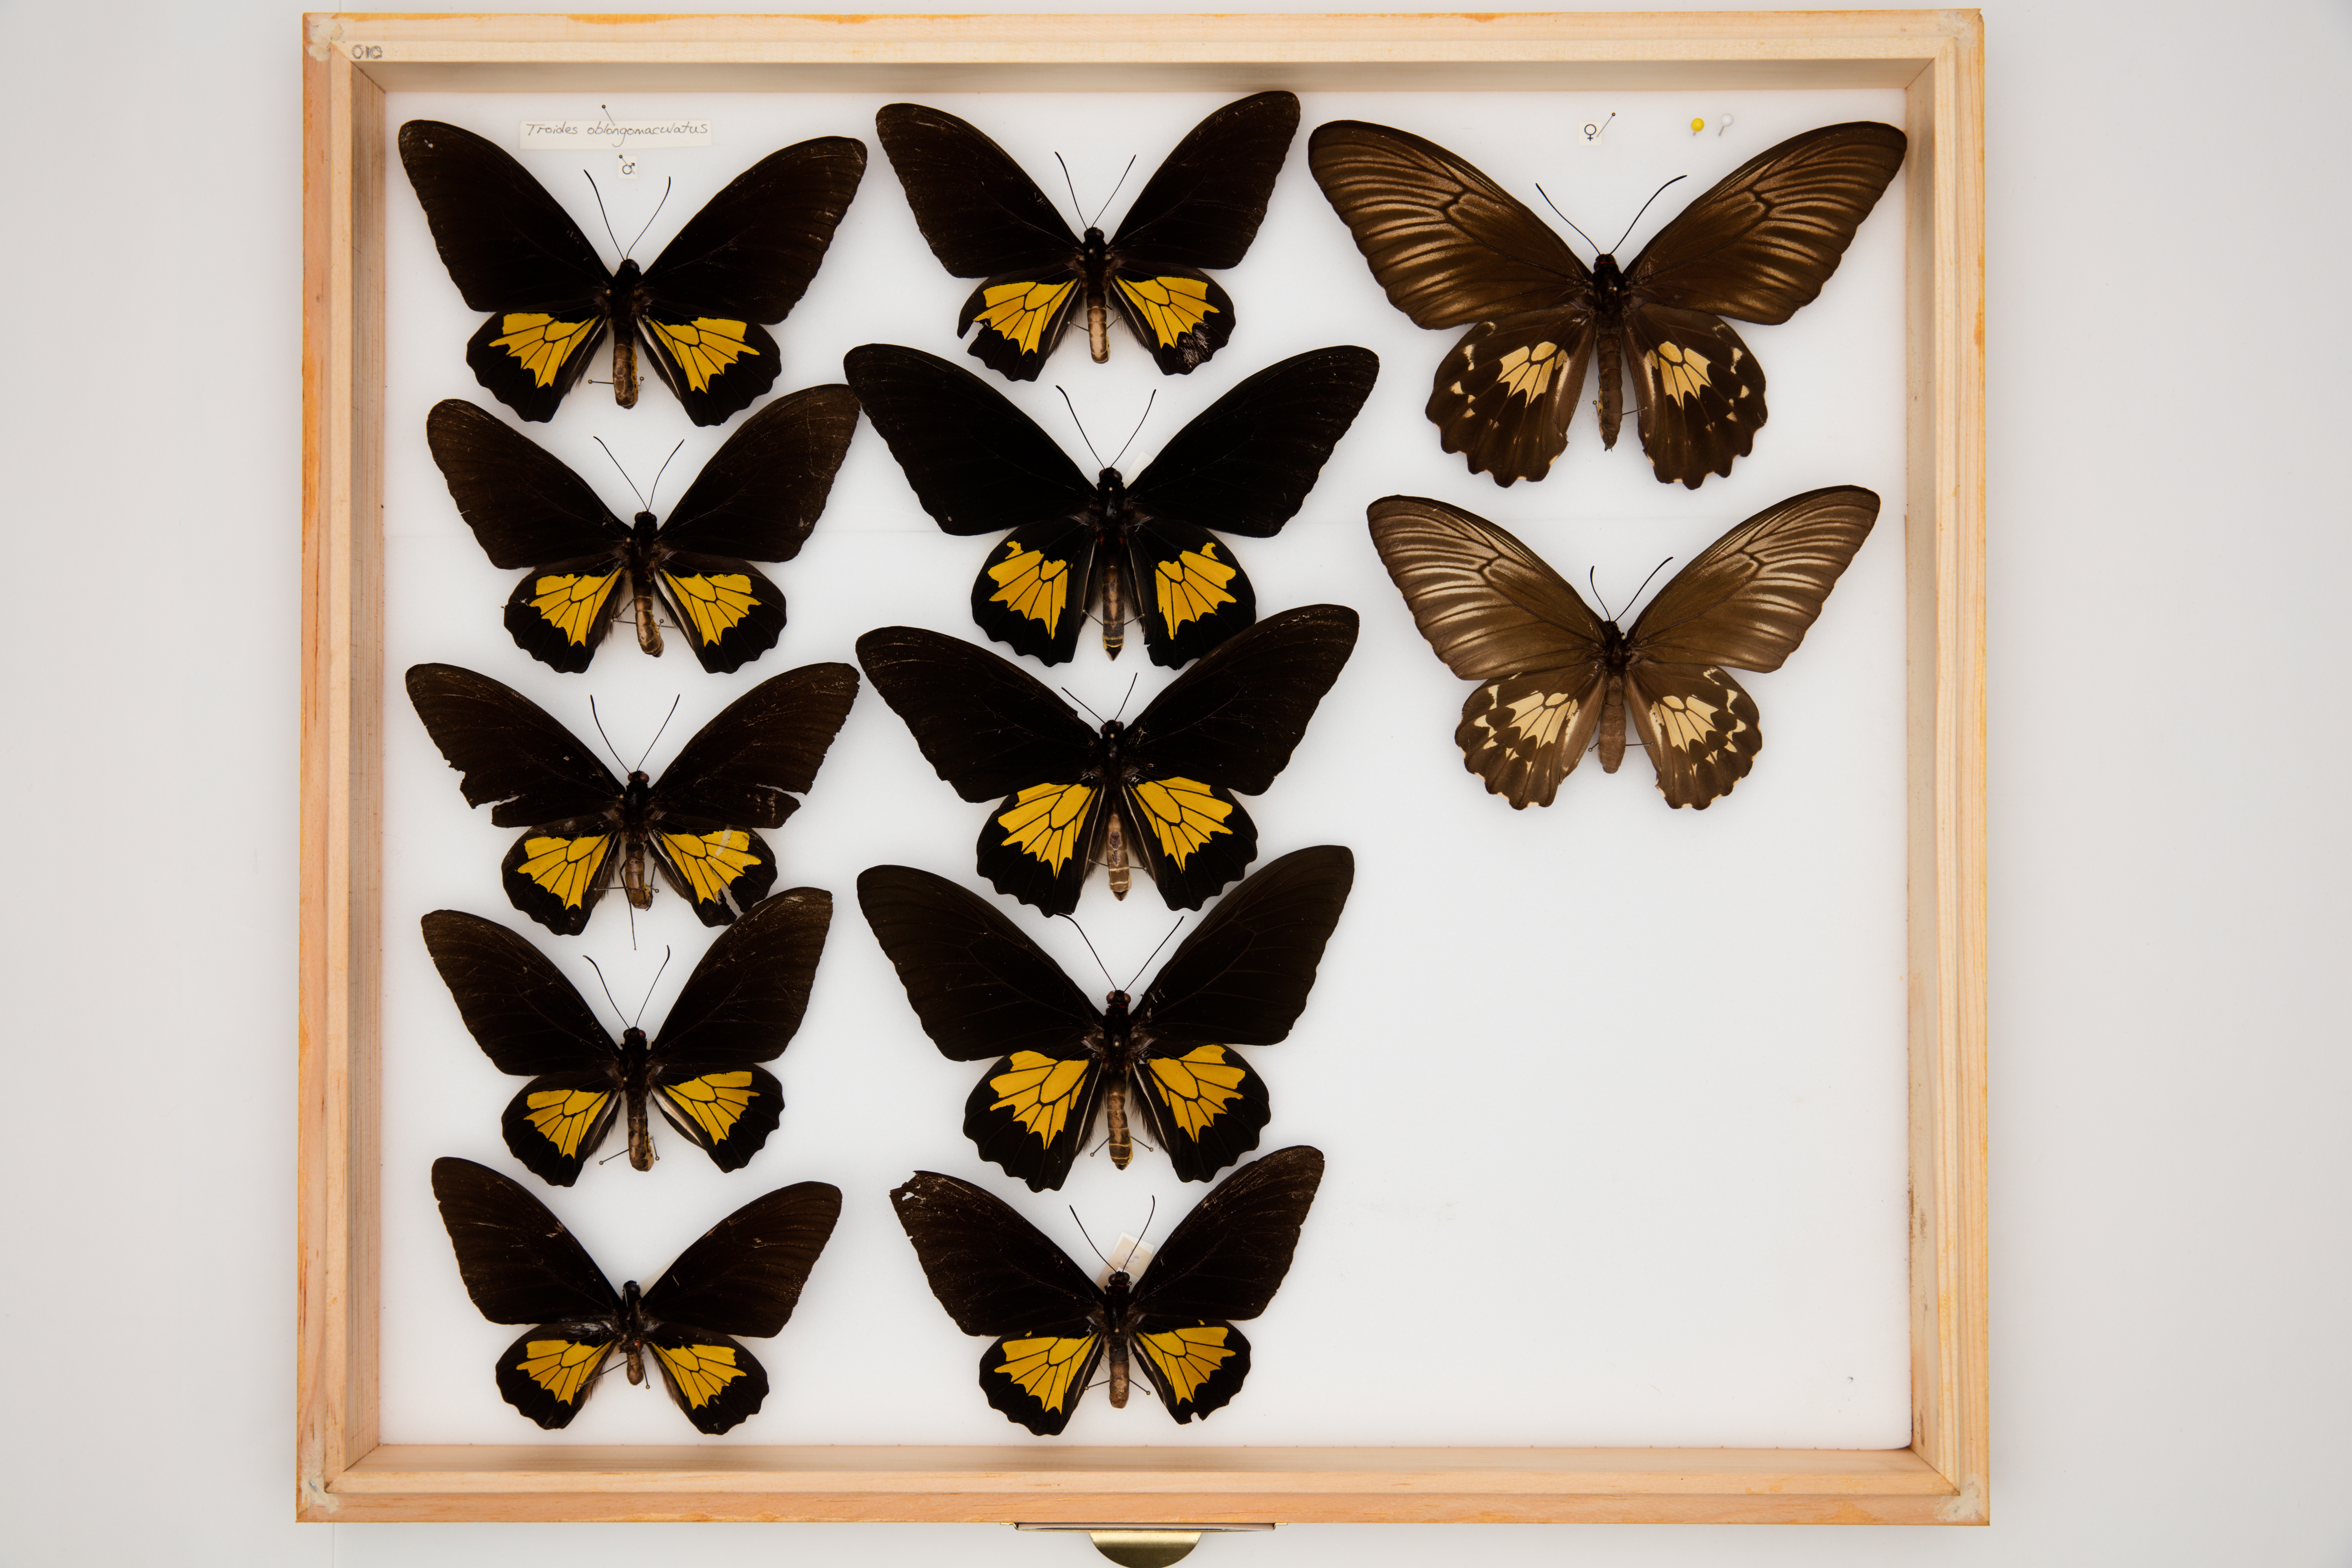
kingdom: Animalia
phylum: Arthropoda
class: Insecta
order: Lepidoptera
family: Papilionidae
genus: Troides
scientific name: Troides oblongomaculatus
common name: Eastern yellow birdwing
